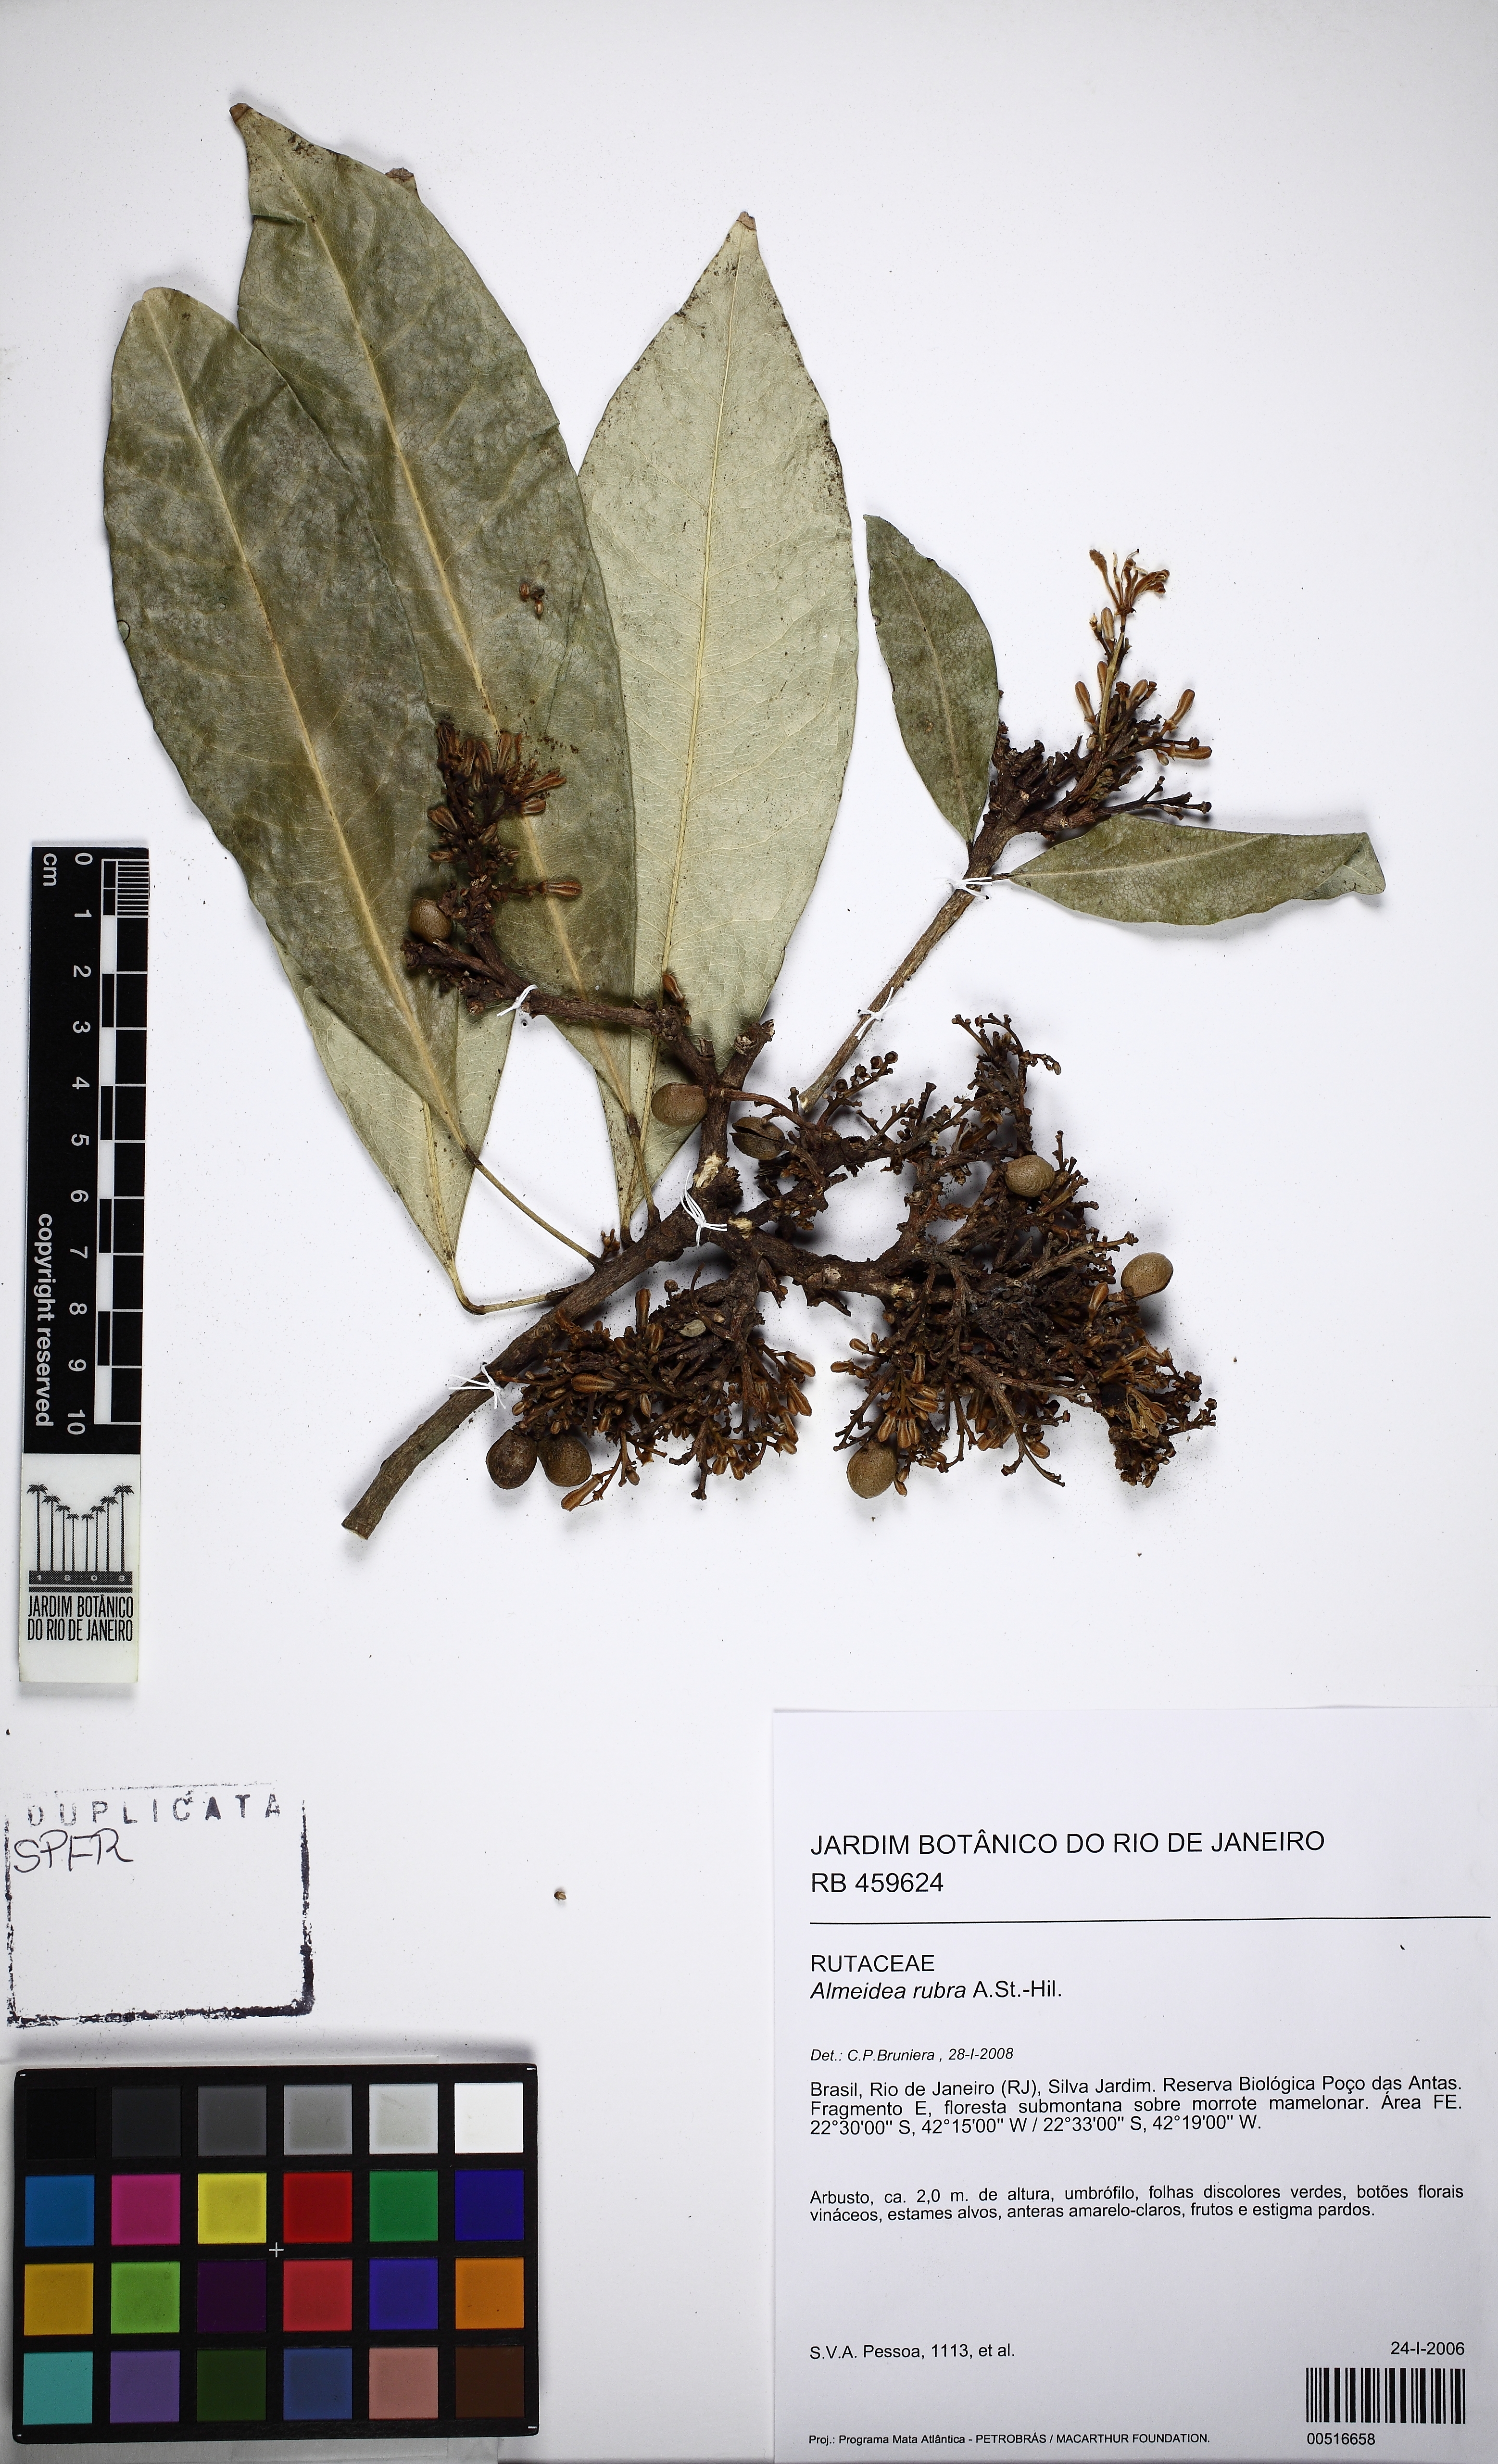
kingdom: Plantae
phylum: Tracheophyta
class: Magnoliopsida
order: Sapindales
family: Rutaceae
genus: Conchocarpus
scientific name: Conchocarpus ruber
